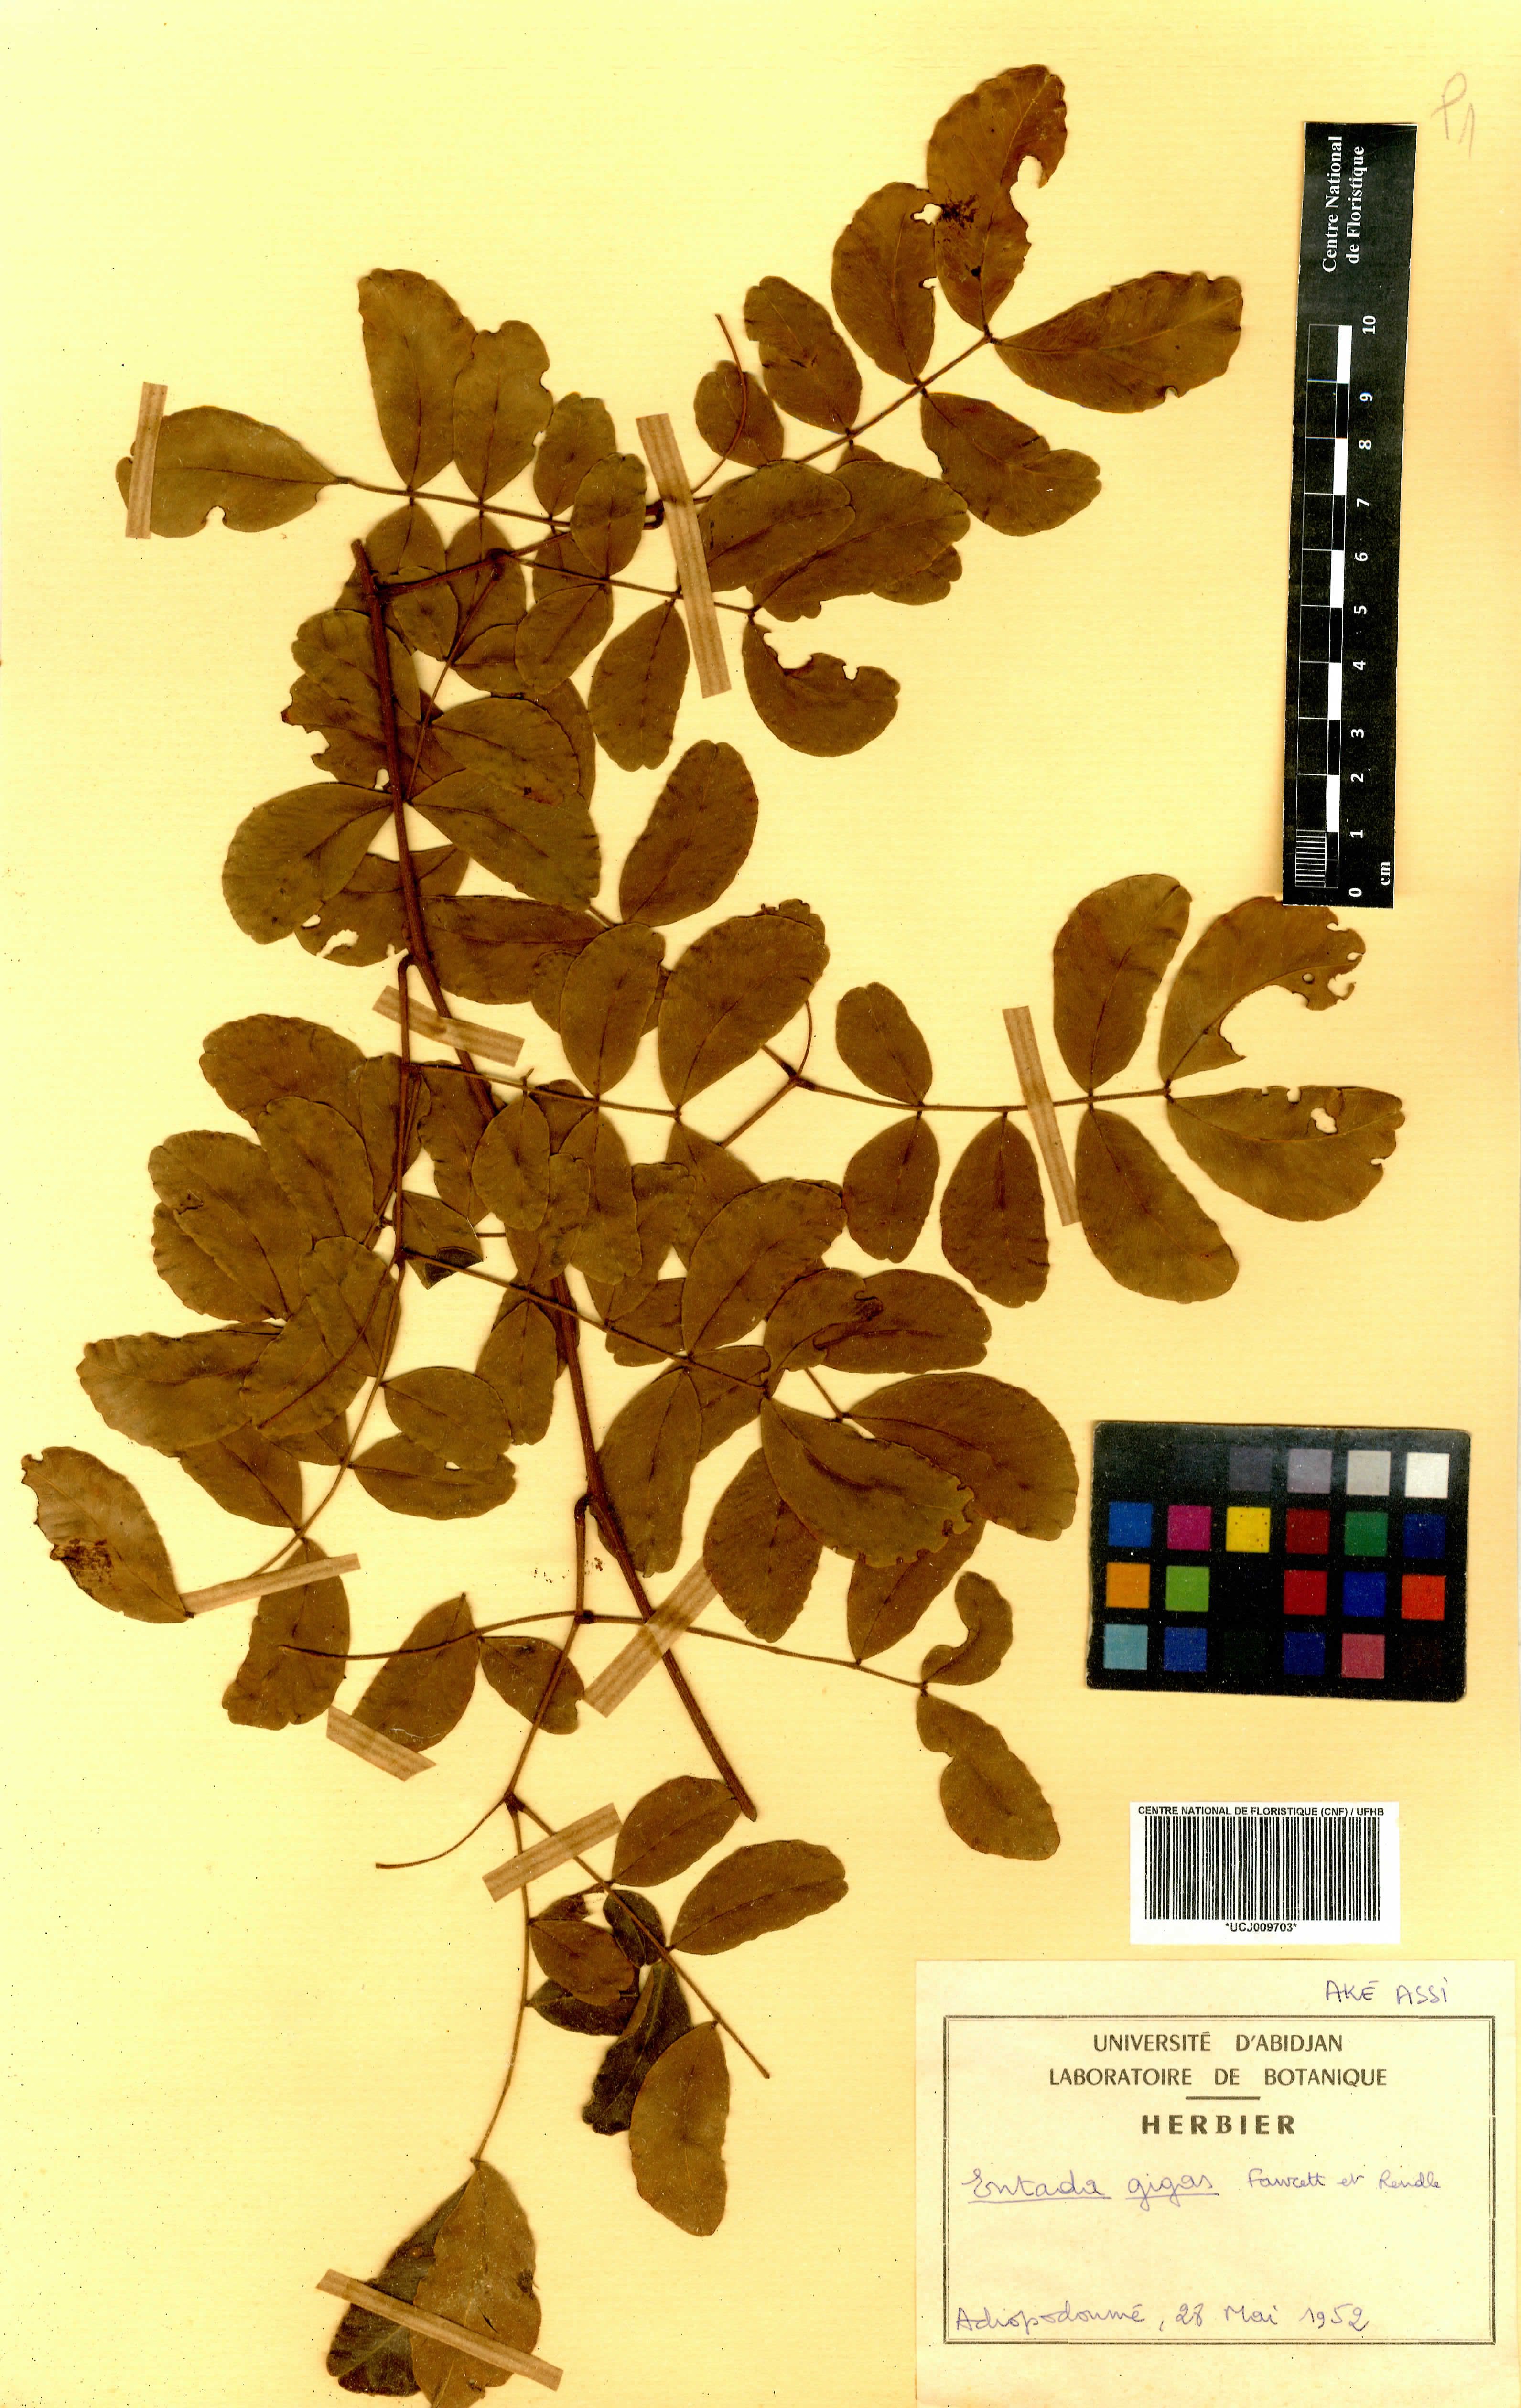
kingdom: Plantae
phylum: Tracheophyta
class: Magnoliopsida
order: Fabales
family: Fabaceae
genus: Entada
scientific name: Entada gigas
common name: Nicker-bean
